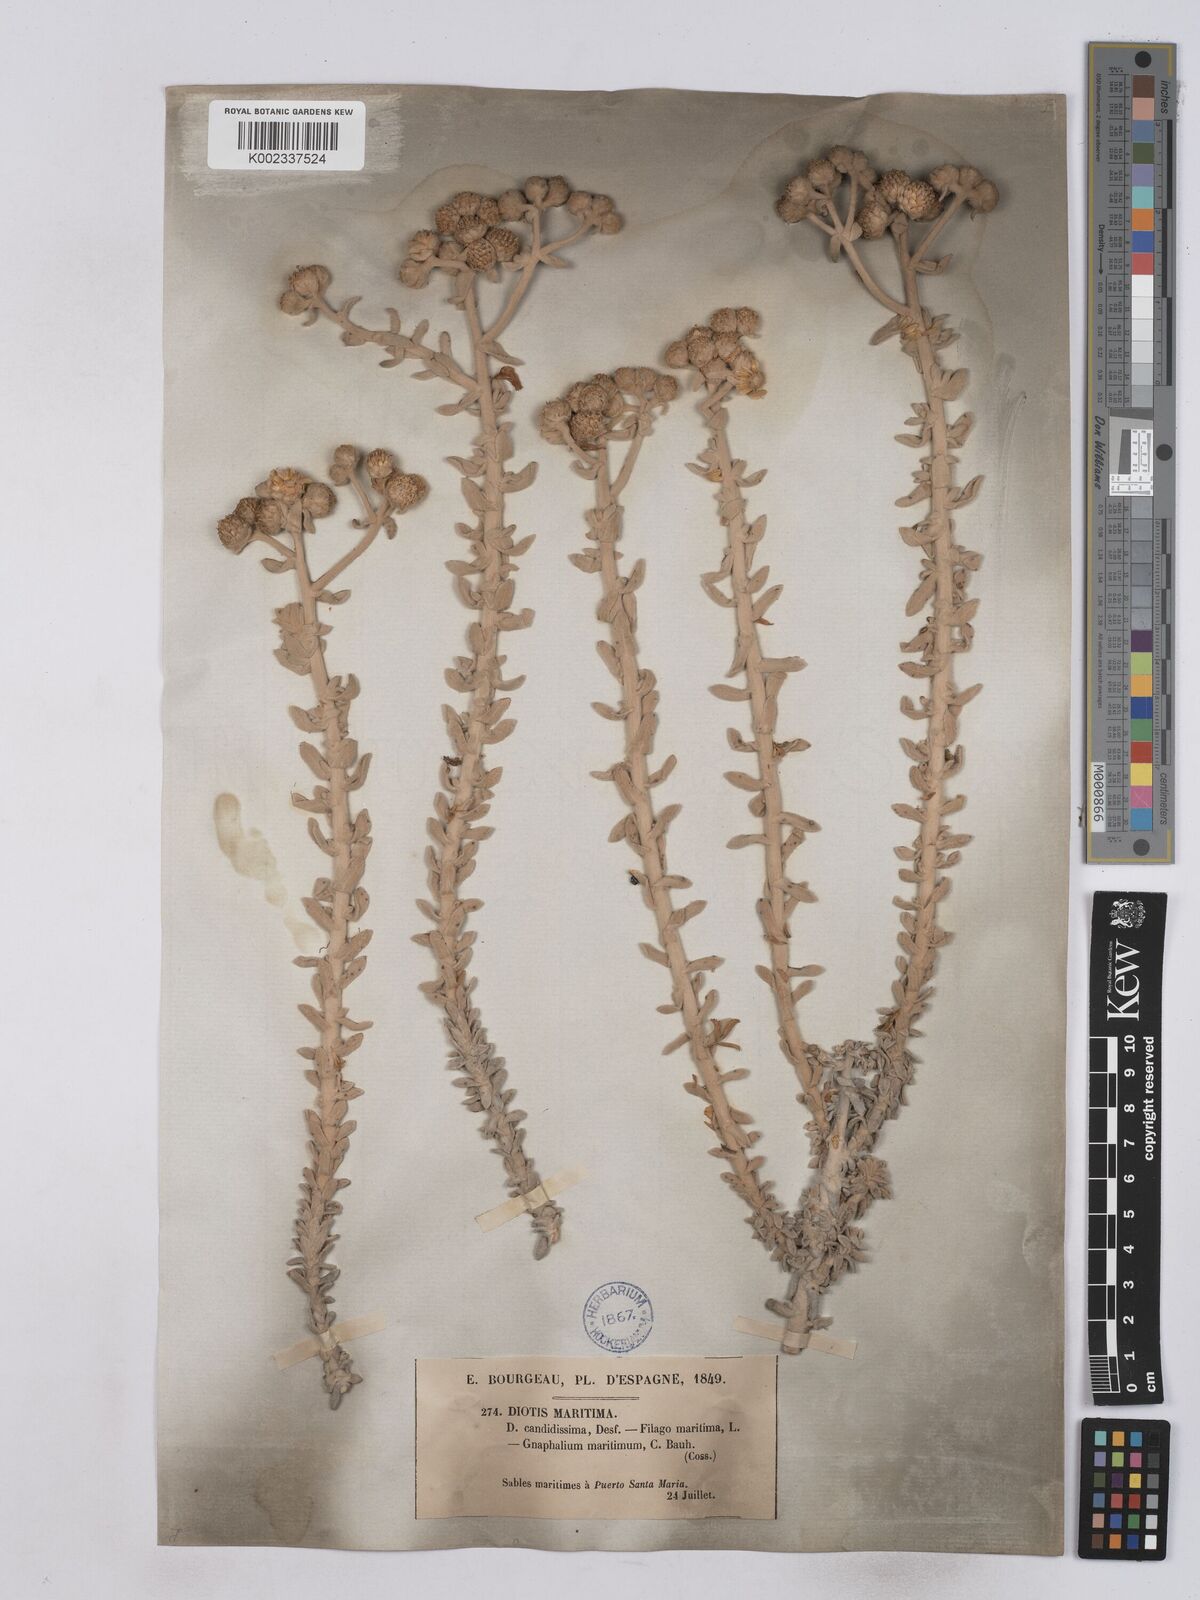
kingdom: Plantae
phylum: Tracheophyta
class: Magnoliopsida
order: Asterales
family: Asteraceae
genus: Achillea
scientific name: Achillea maritima
